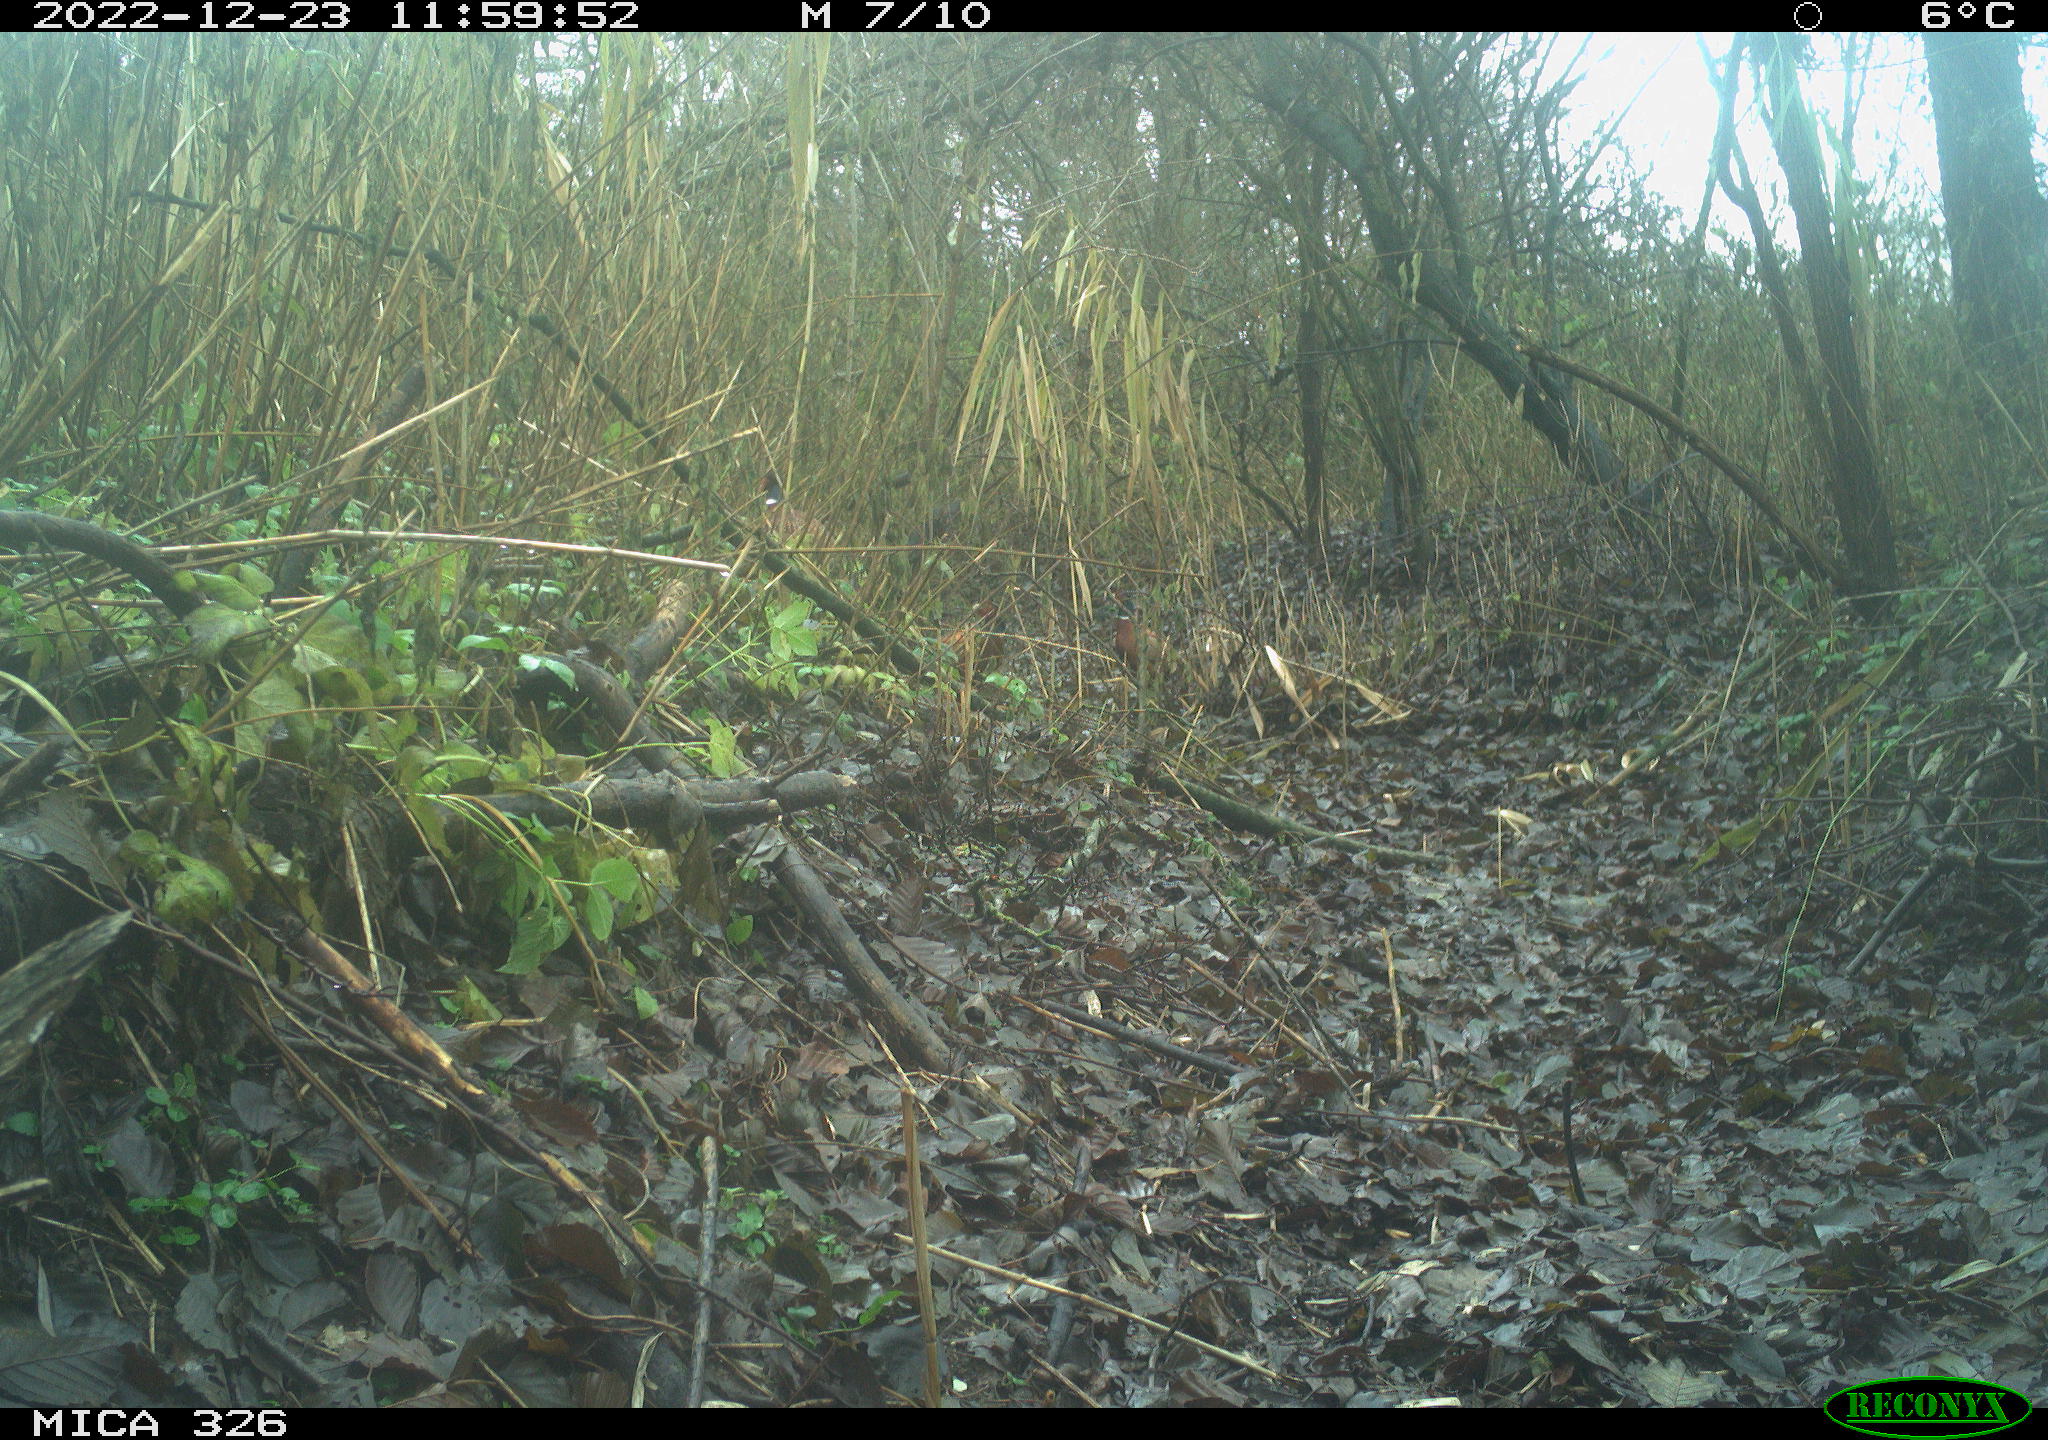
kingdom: Animalia
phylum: Chordata
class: Aves
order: Galliformes
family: Phasianidae
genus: Phasianus
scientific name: Phasianus colchicus
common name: Common pheasant
